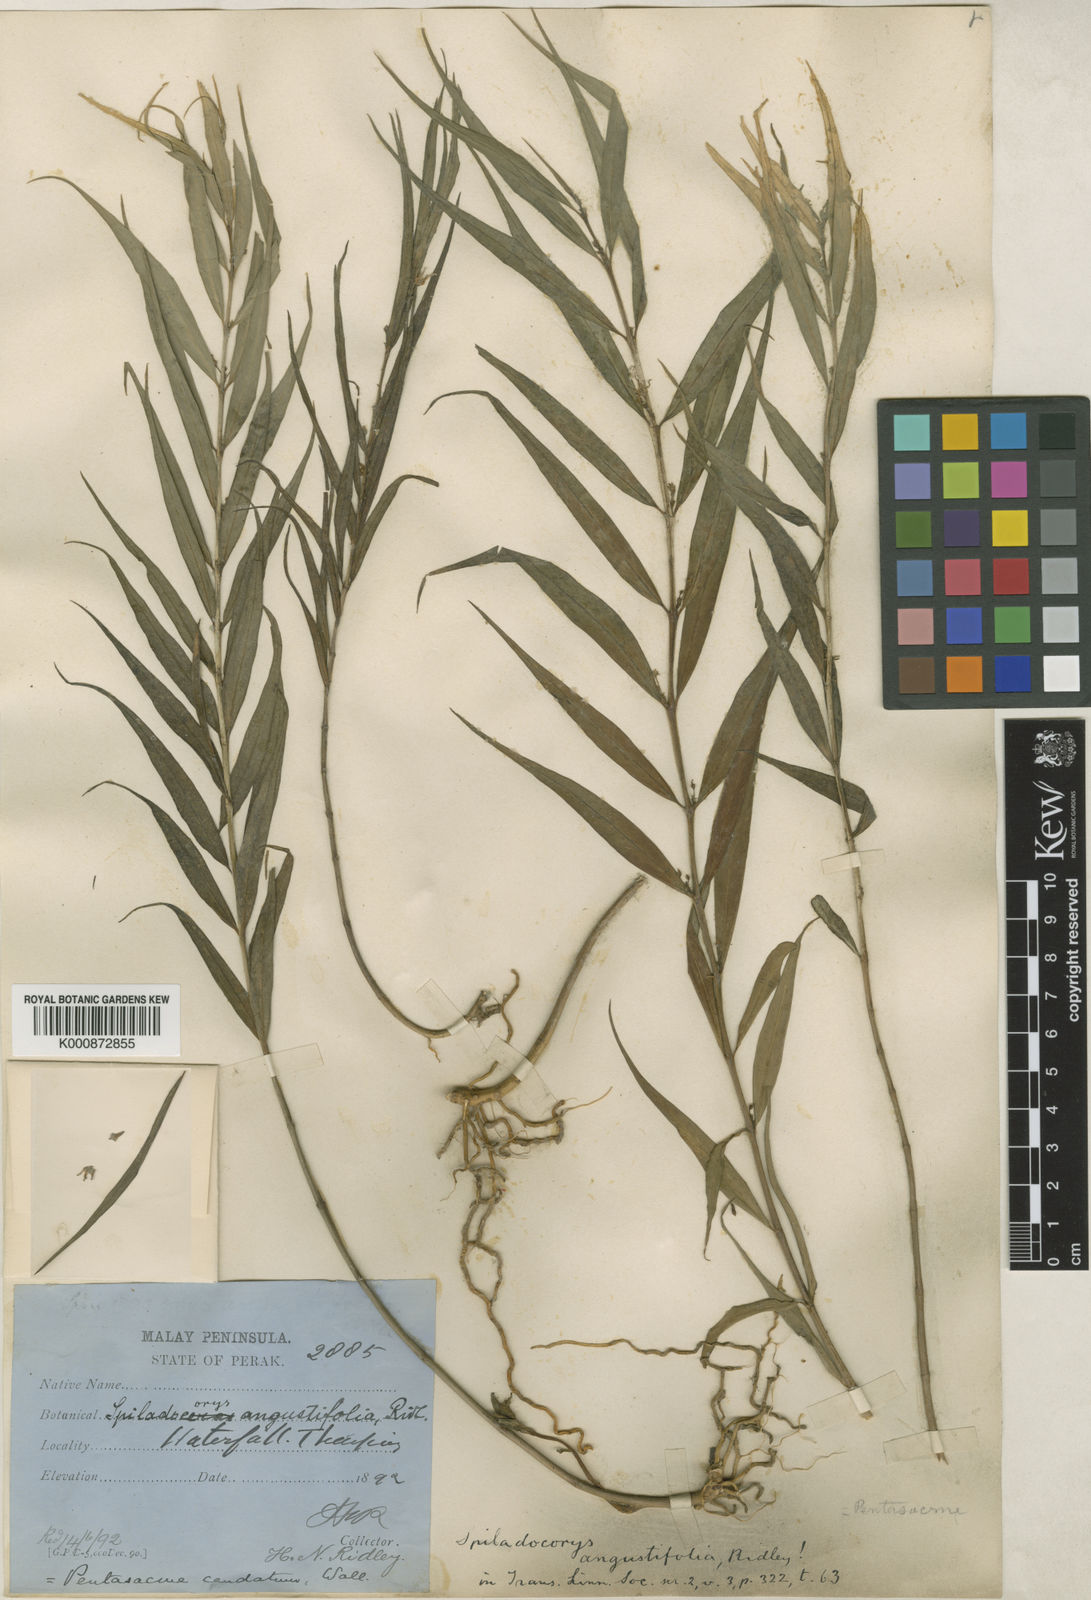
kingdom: Plantae
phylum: Tracheophyta
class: Magnoliopsida
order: Gentianales
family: Apocynaceae
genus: Pentasachme
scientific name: Pentasachme caudatum
